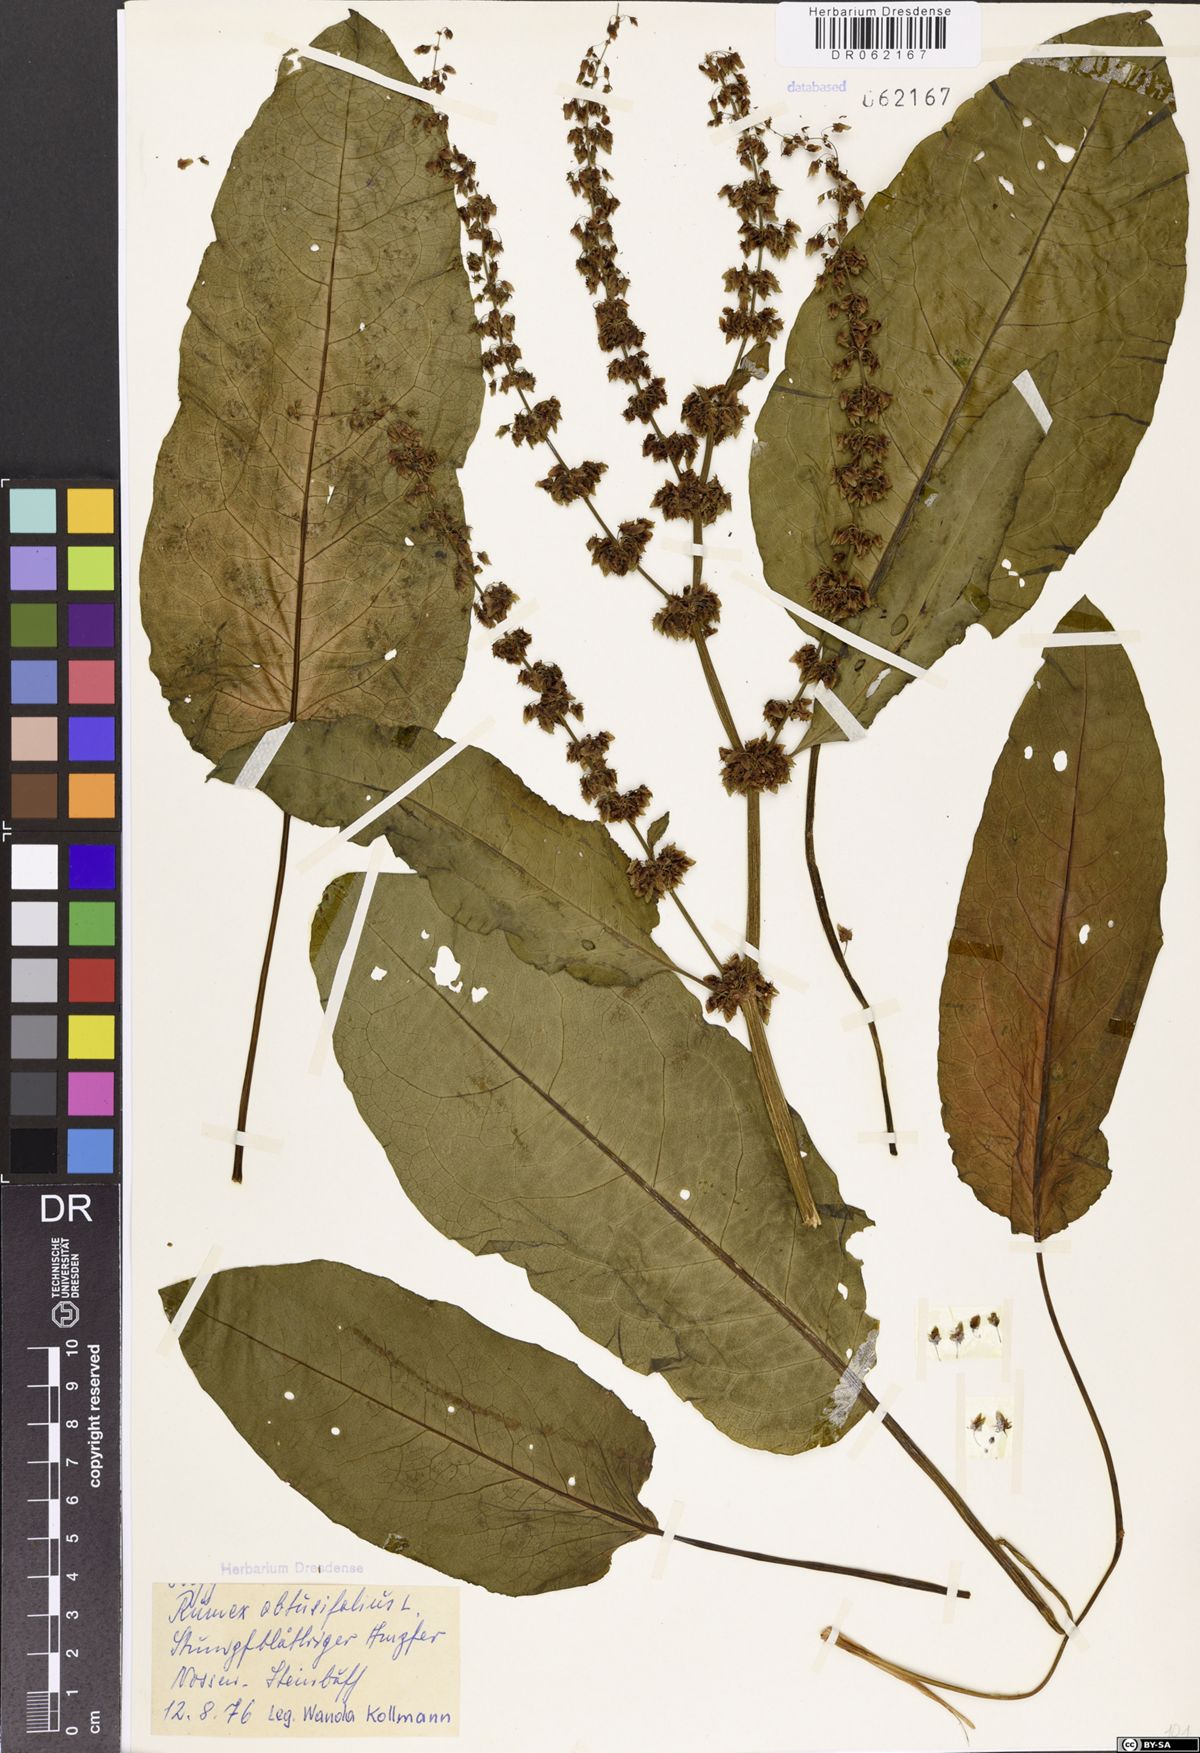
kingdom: Plantae
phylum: Tracheophyta
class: Magnoliopsida
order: Caryophyllales
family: Polygonaceae
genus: Rumex
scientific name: Rumex obtusifolius
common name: Bitter dock
